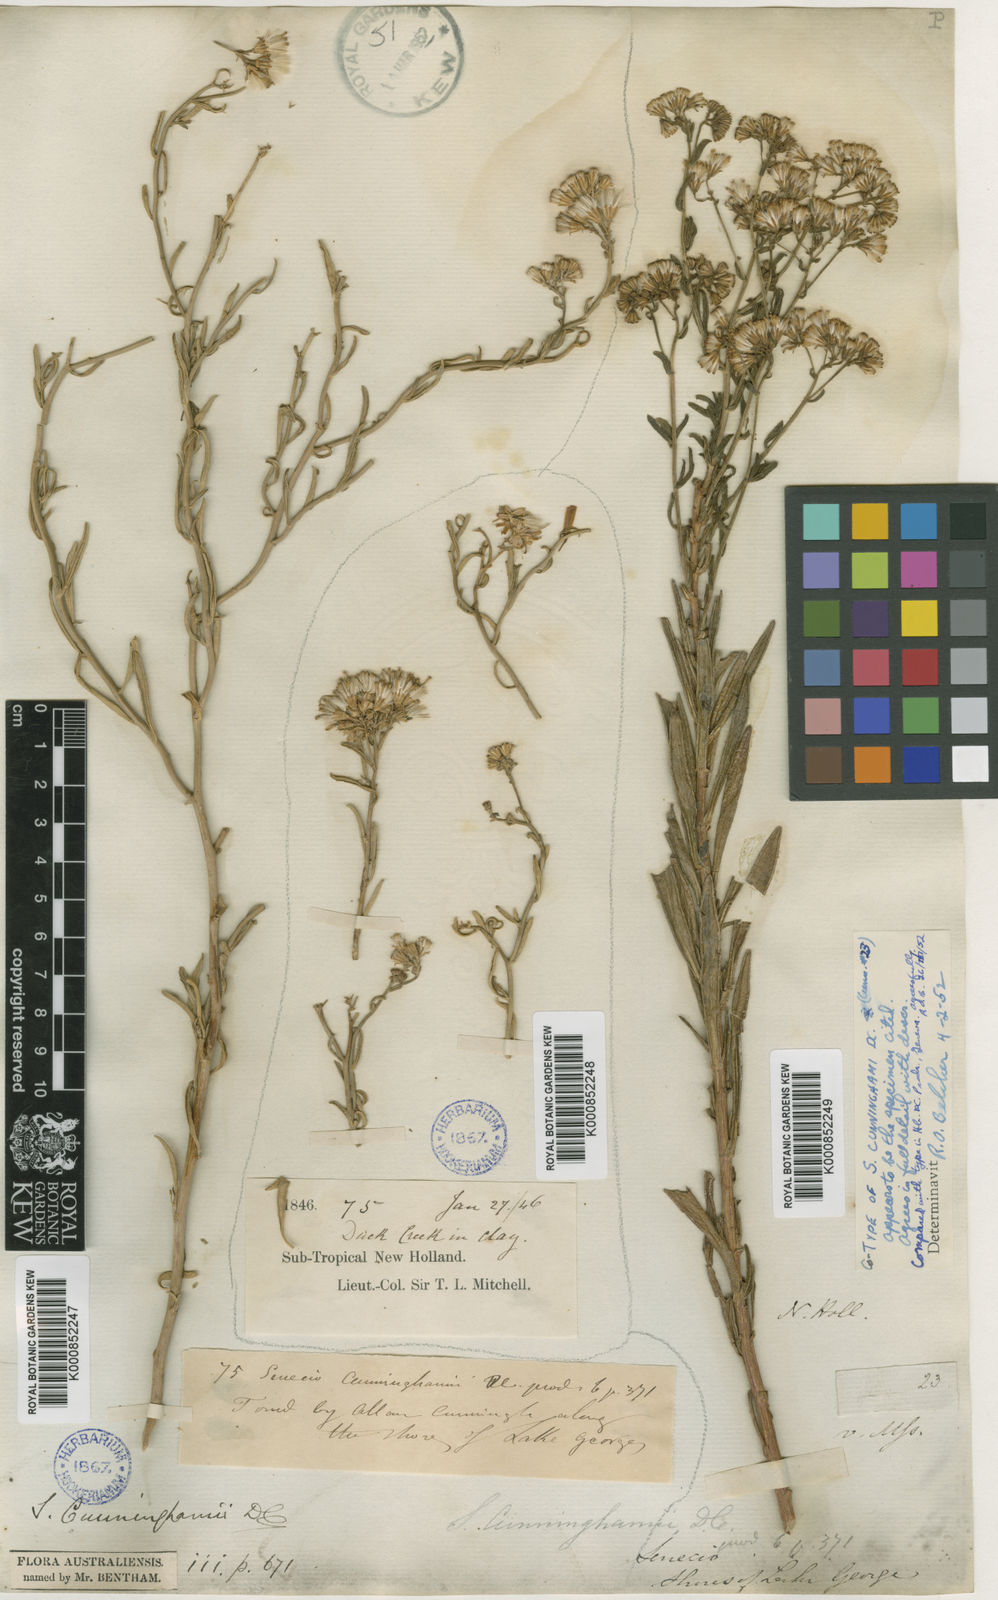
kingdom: Plantae
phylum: Tracheophyta
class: Magnoliopsida
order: Asterales
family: Asteraceae
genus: Senecio
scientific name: Senecio cunninghamii
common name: Bushy groundsel
